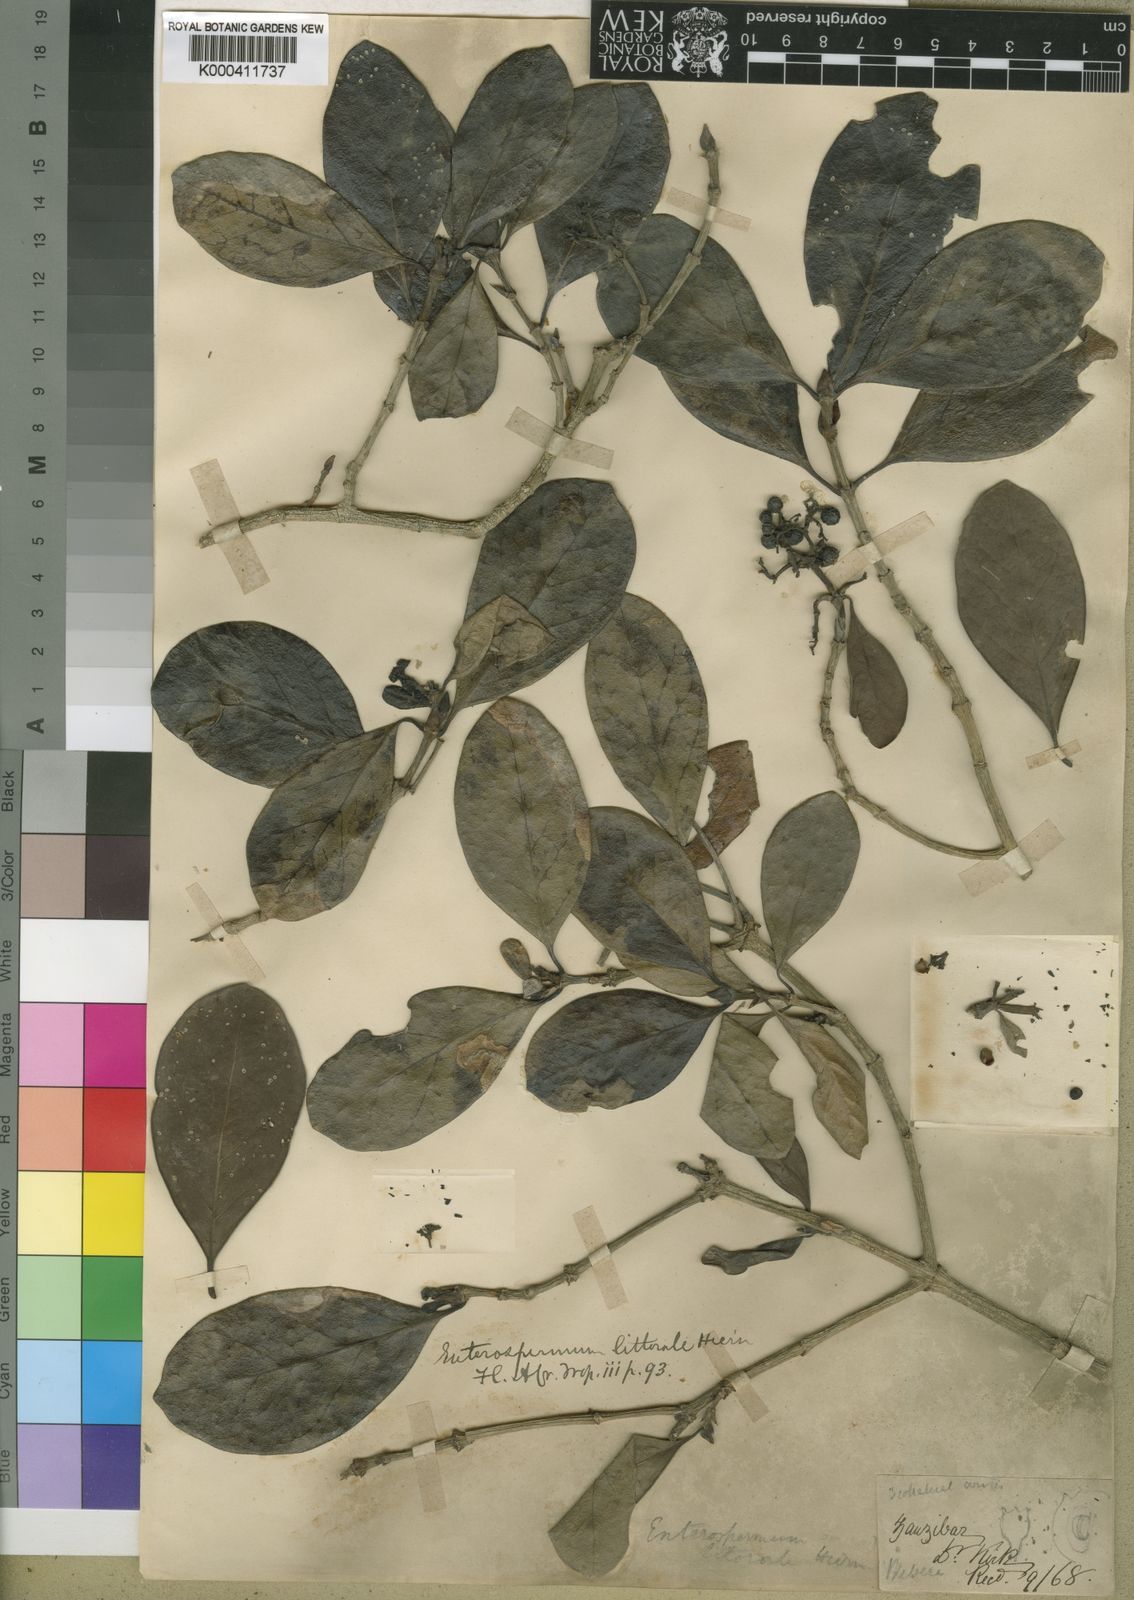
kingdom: Plantae
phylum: Tracheophyta
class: Magnoliopsida
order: Gentianales
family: Rubiaceae
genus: Coptosperma
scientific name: Coptosperma littorale
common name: Dune butterspoon
